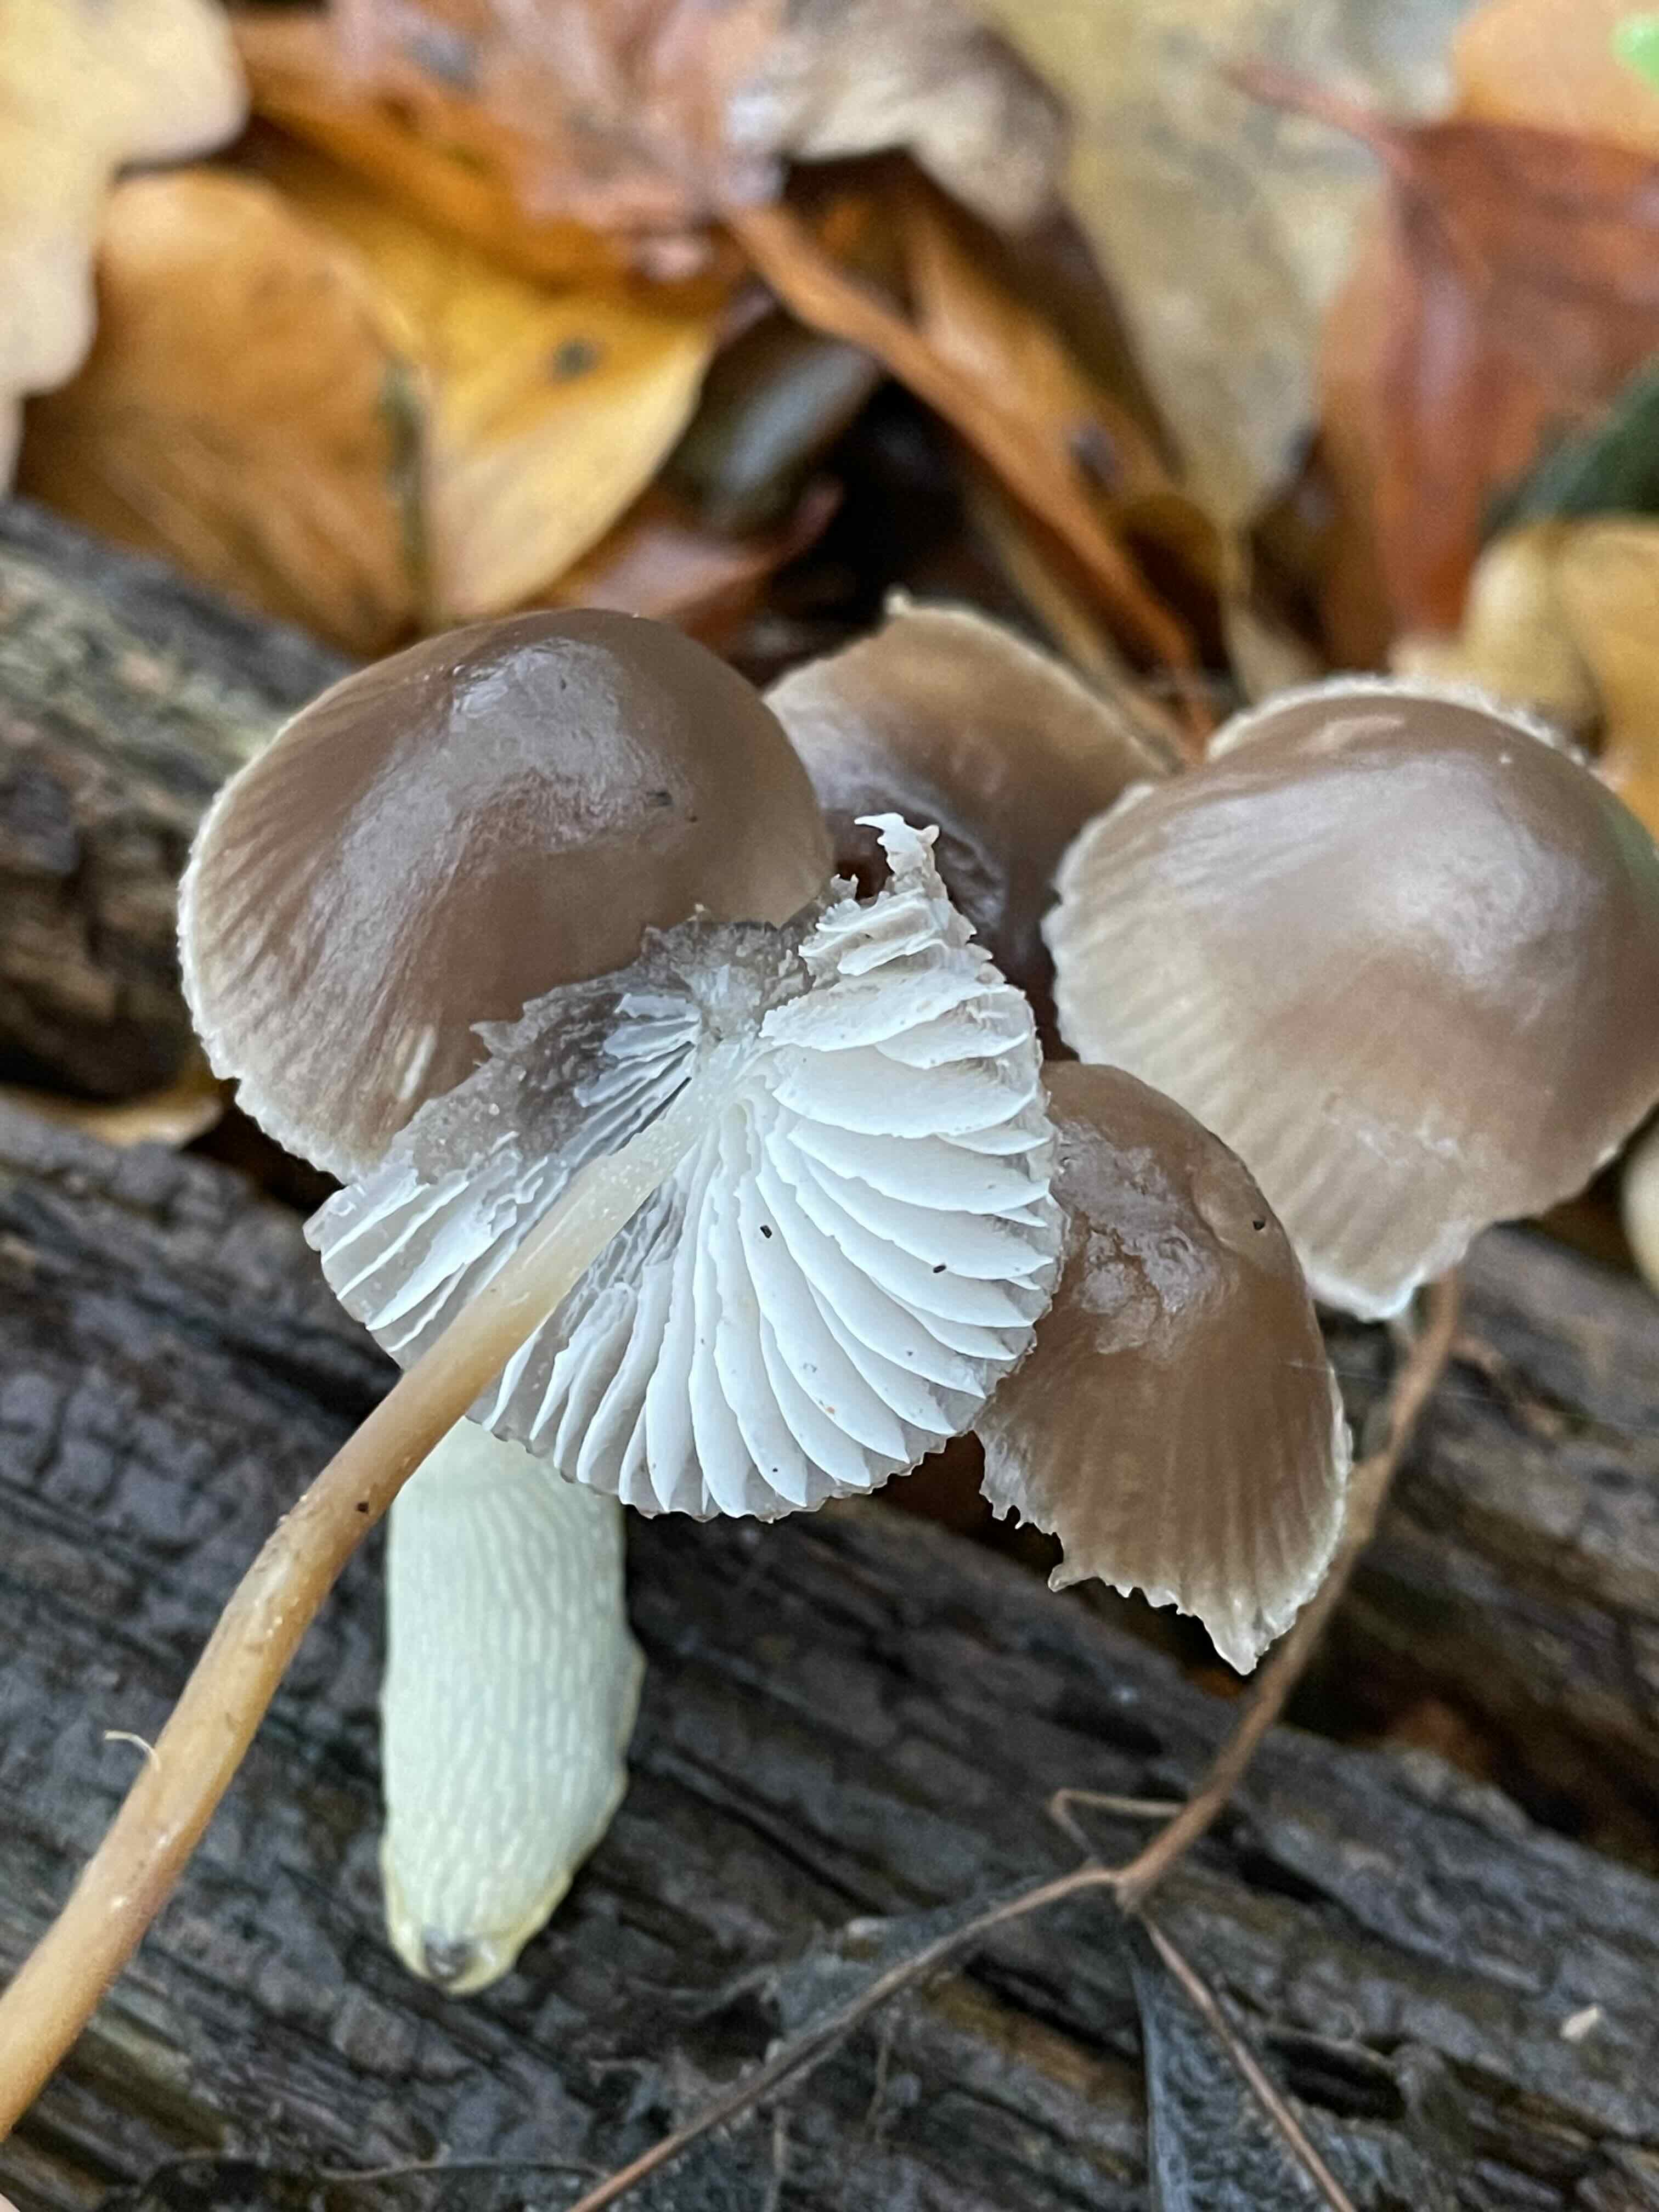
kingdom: Fungi
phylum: Basidiomycota
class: Agaricomycetes
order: Agaricales
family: Mycenaceae
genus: Mycena
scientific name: Mycena inclinata
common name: nikkende huesvamp
